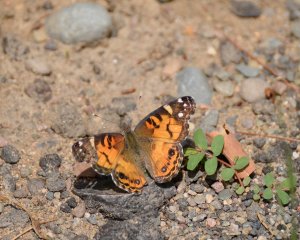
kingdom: Animalia
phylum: Arthropoda
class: Insecta
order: Lepidoptera
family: Nymphalidae
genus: Vanessa
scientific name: Vanessa virginiensis
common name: American Lady
